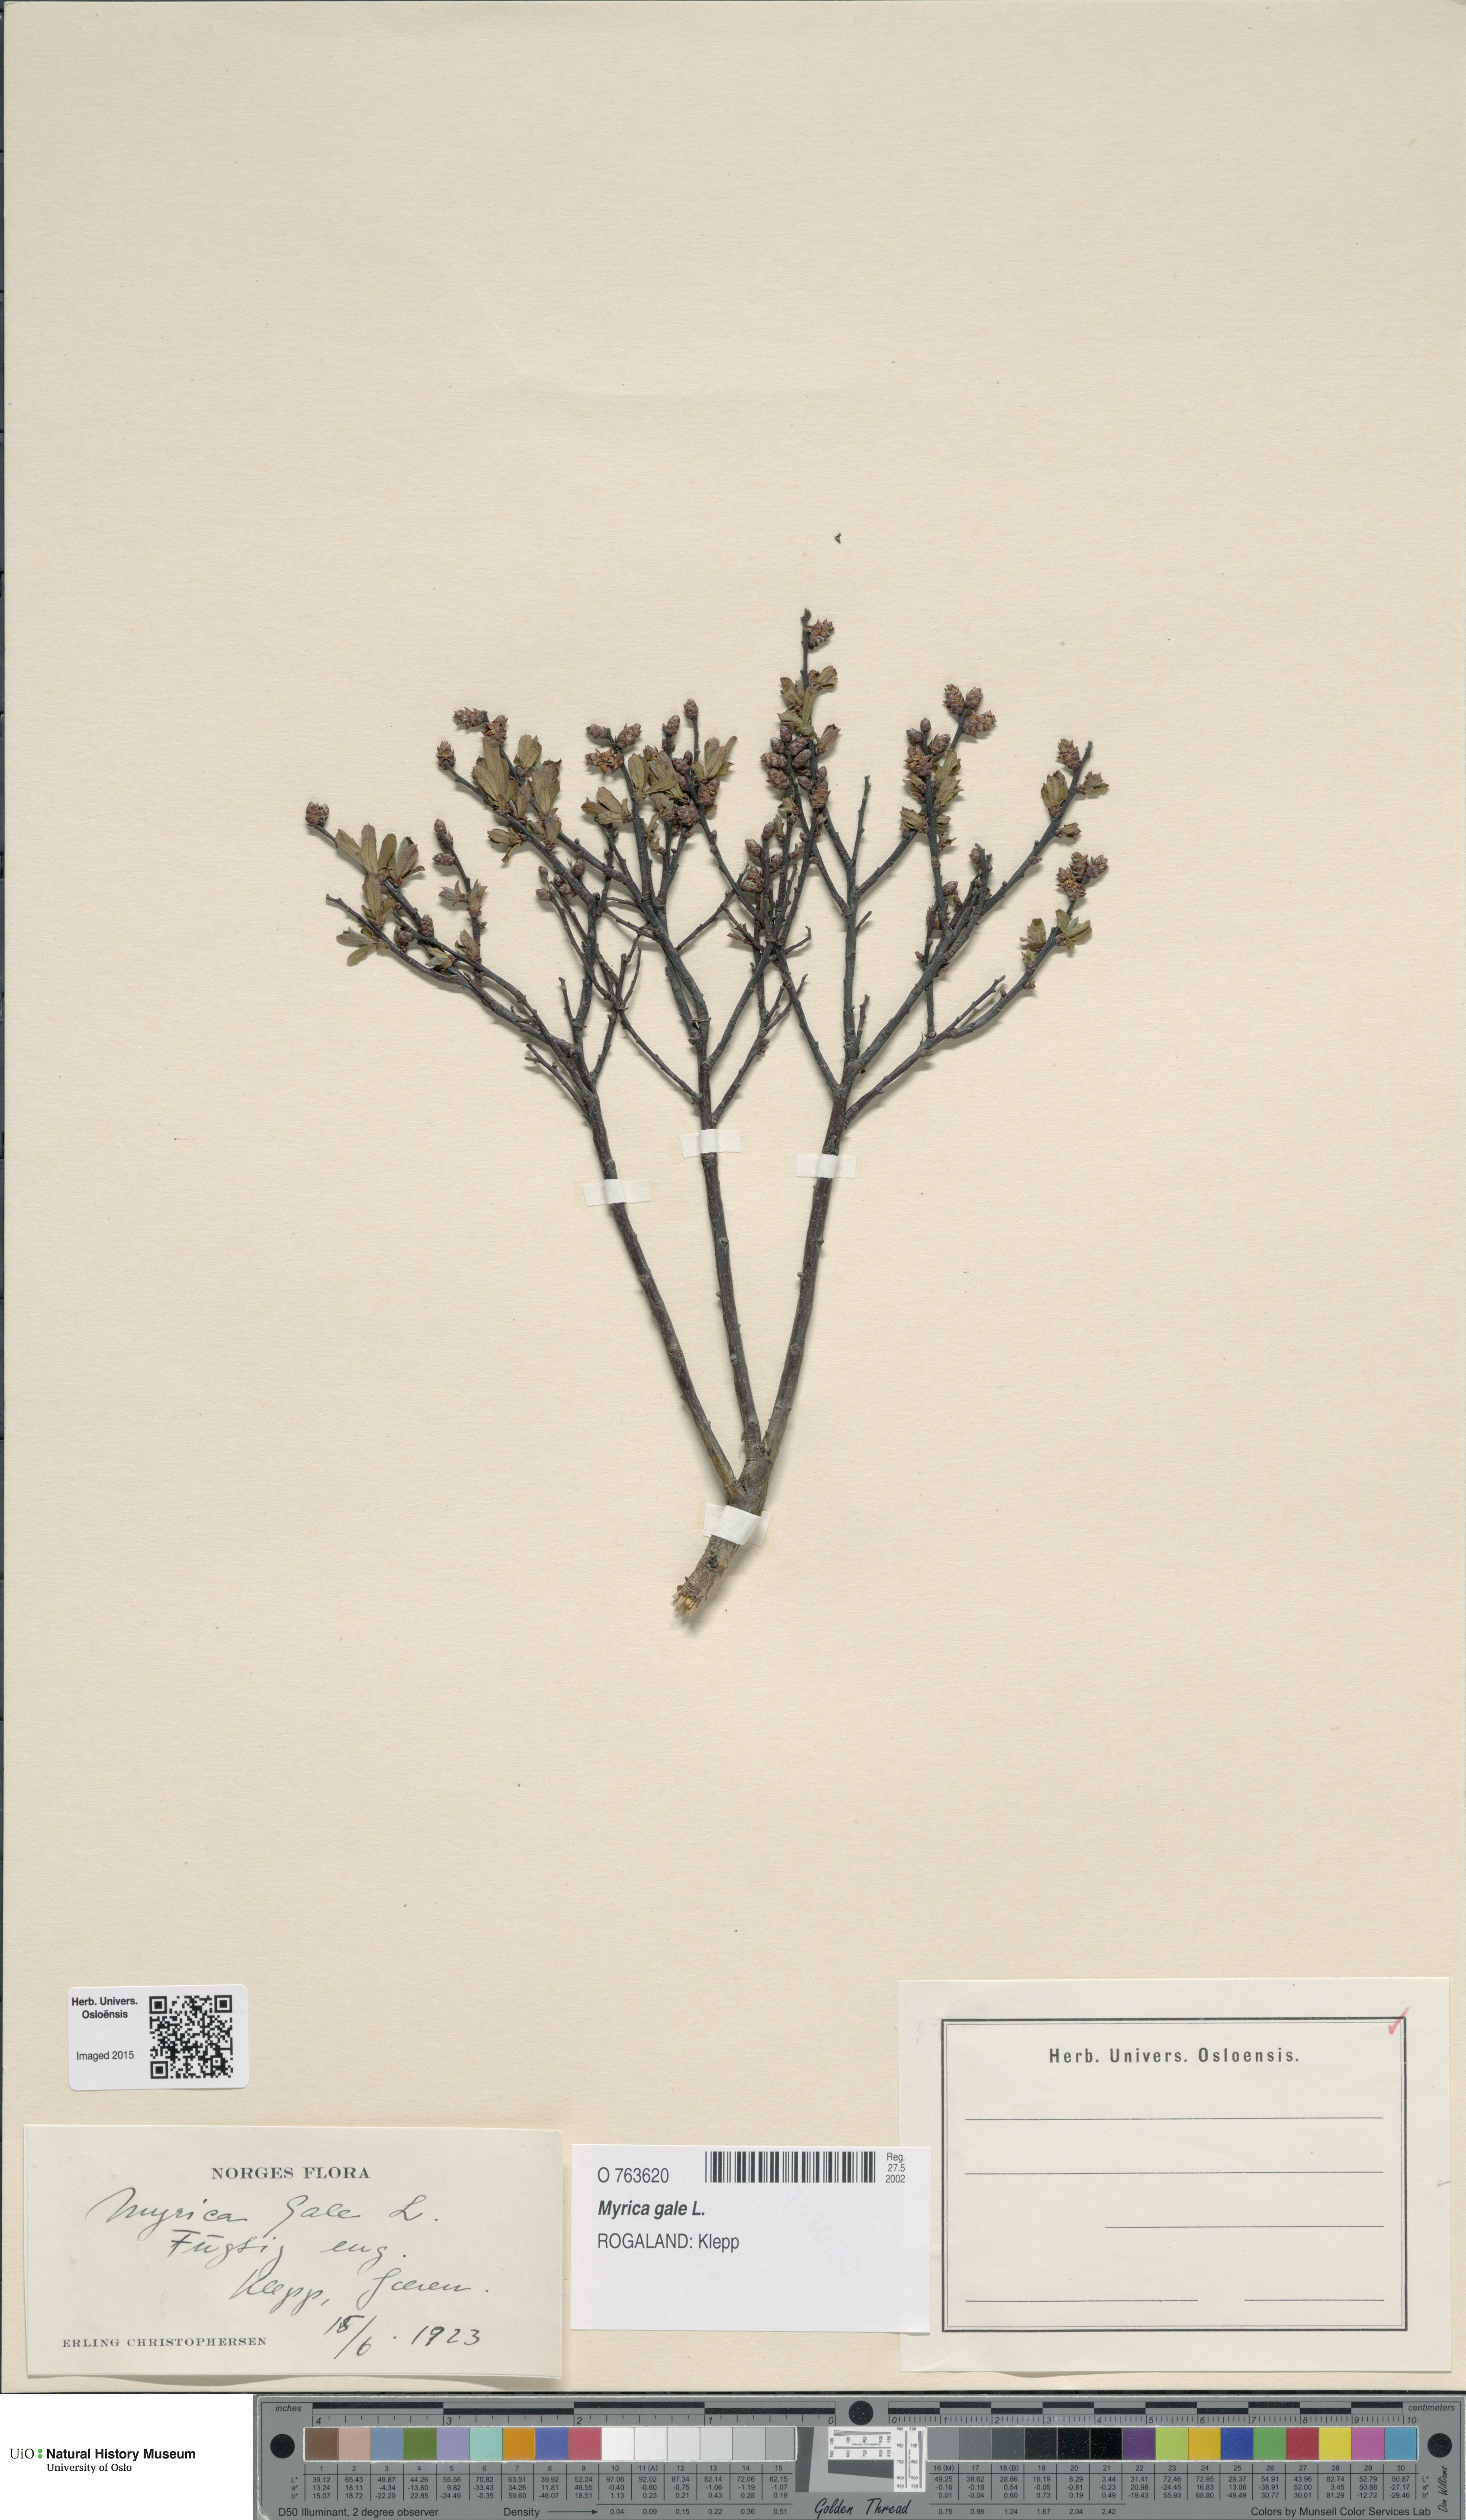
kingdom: Plantae
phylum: Tracheophyta
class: Magnoliopsida
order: Fagales
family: Myricaceae
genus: Myrica
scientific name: Myrica gale
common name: Sweet gale
